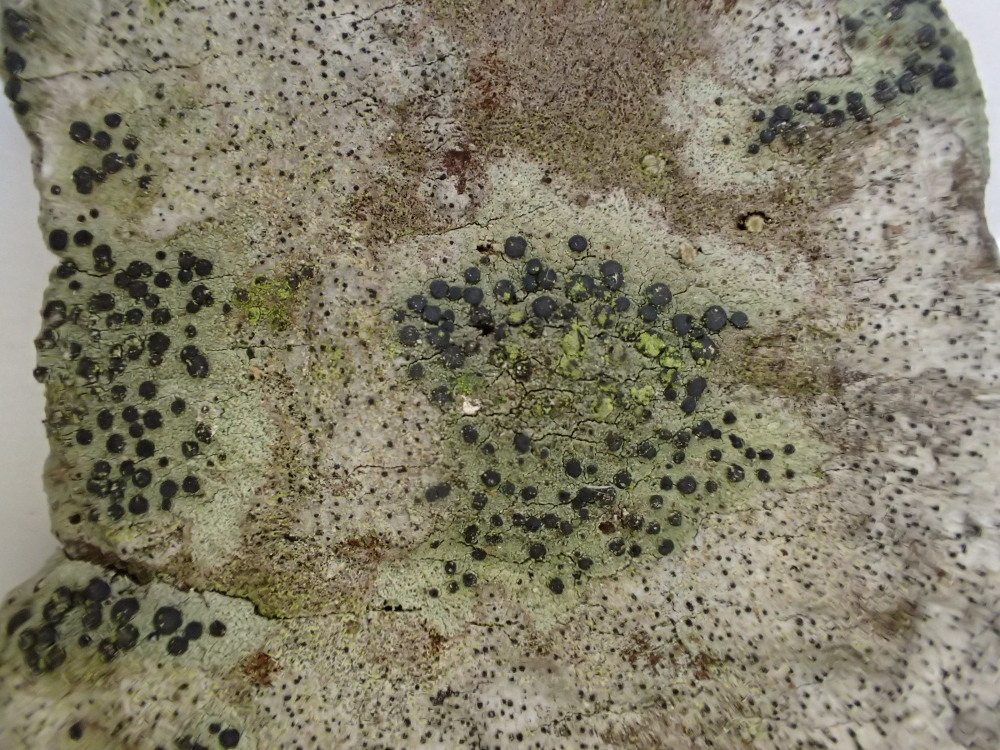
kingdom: Fungi
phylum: Ascomycota
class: Lecanoromycetes
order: Lecanorales
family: Lecanoraceae
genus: Lecidella
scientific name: Lecidella elaeochroma
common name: grågrøn skivelav
